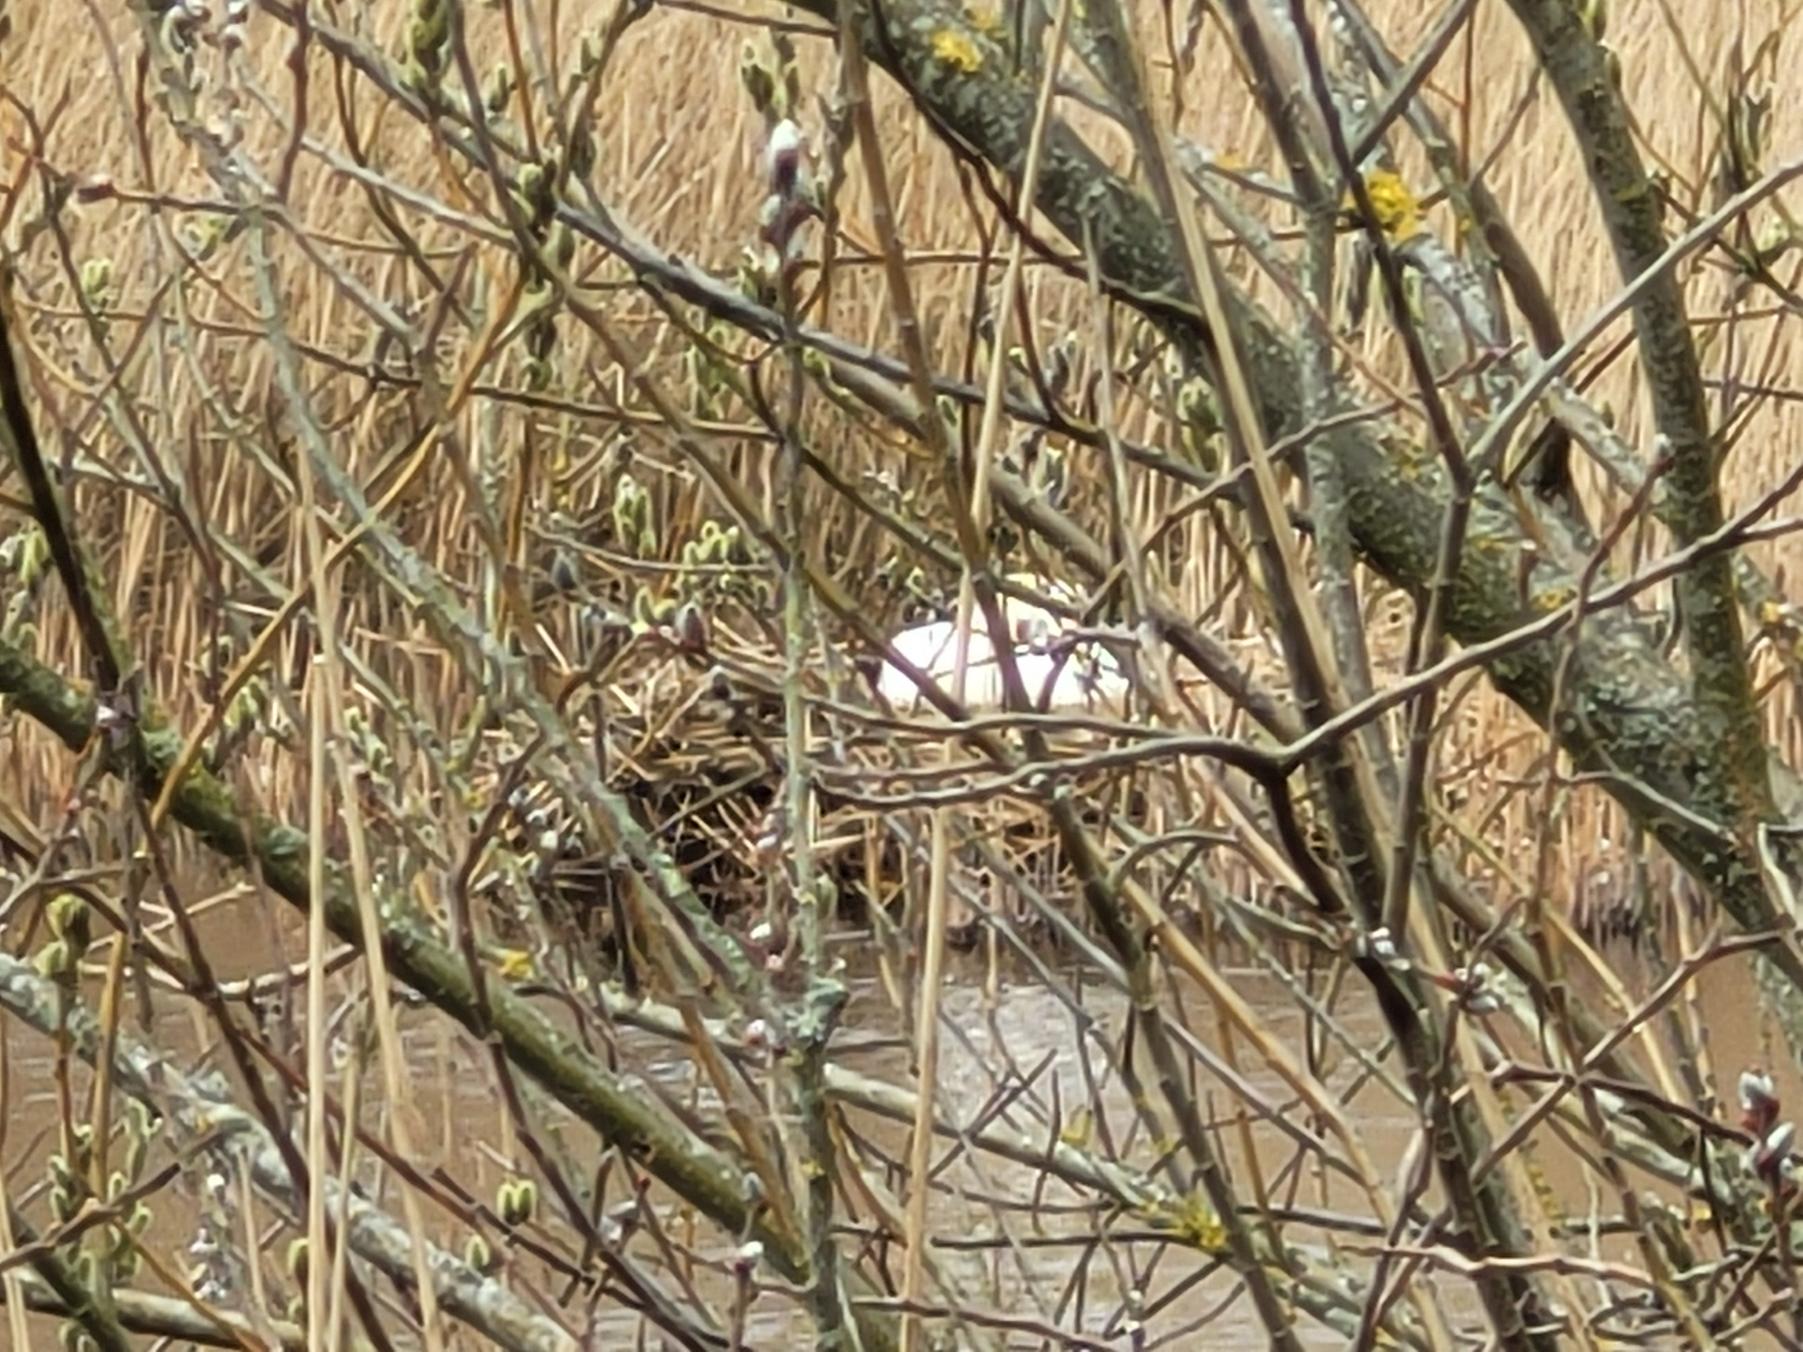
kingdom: Animalia
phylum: Chordata
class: Aves
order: Anseriformes
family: Anatidae
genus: Cygnus
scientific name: Cygnus olor
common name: Knopsvane
